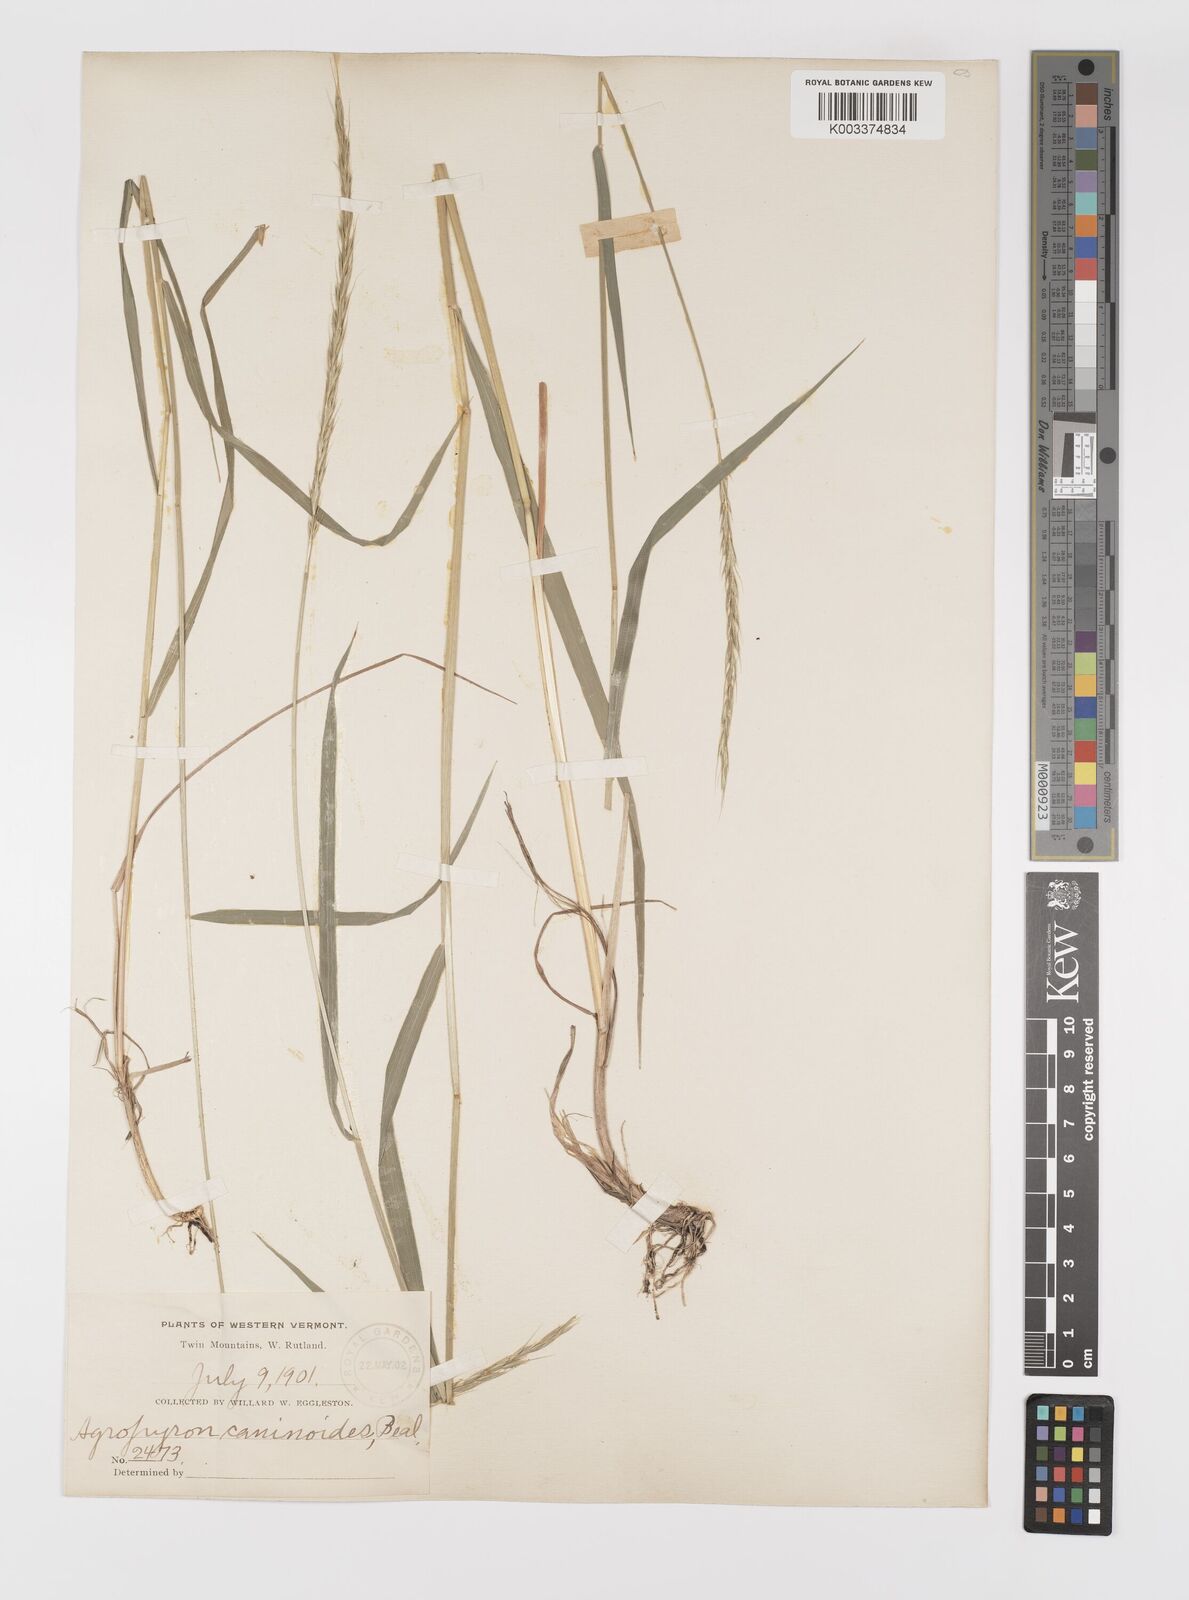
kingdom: Plantae
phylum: Tracheophyta
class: Liliopsida
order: Poales
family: Poaceae
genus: Elymus
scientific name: Elymus violaceus
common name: Arctic wheatgrass
